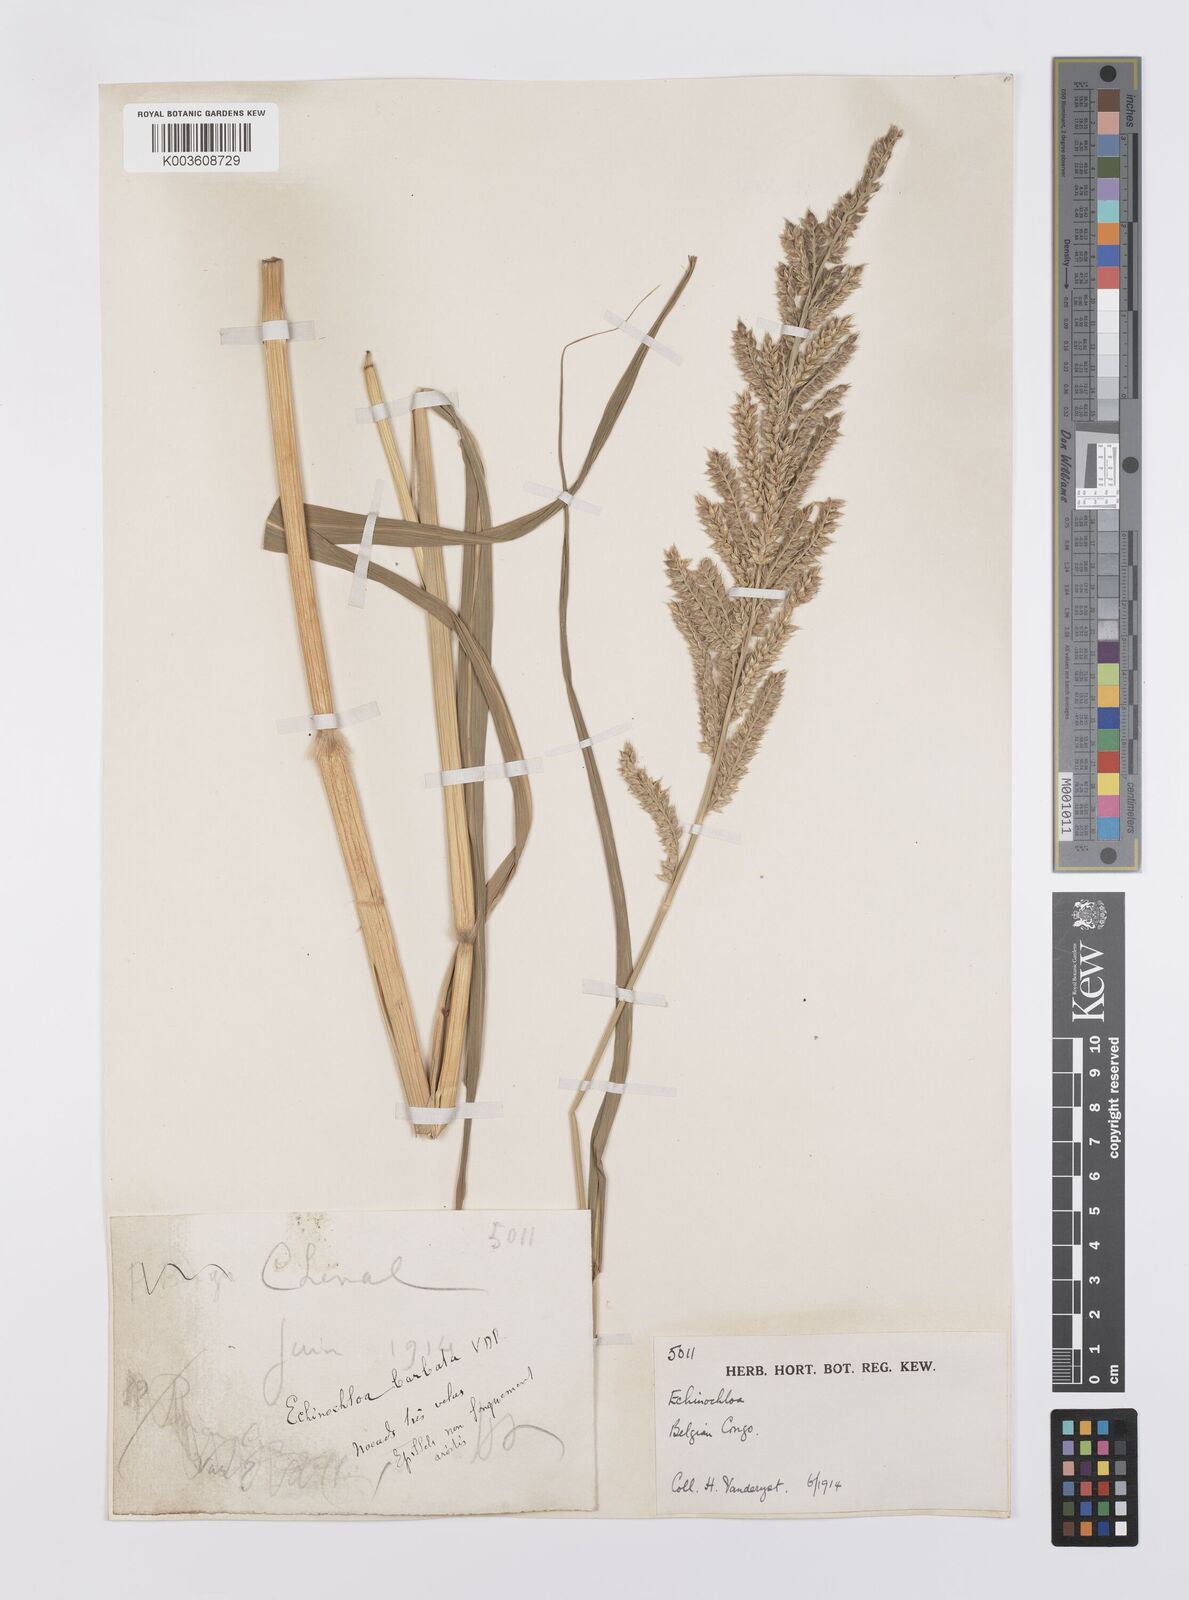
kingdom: Plantae
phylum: Tracheophyta
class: Liliopsida
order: Poales
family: Poaceae
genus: Echinochloa
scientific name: Echinochloa pyramidalis
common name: Antelope grass
